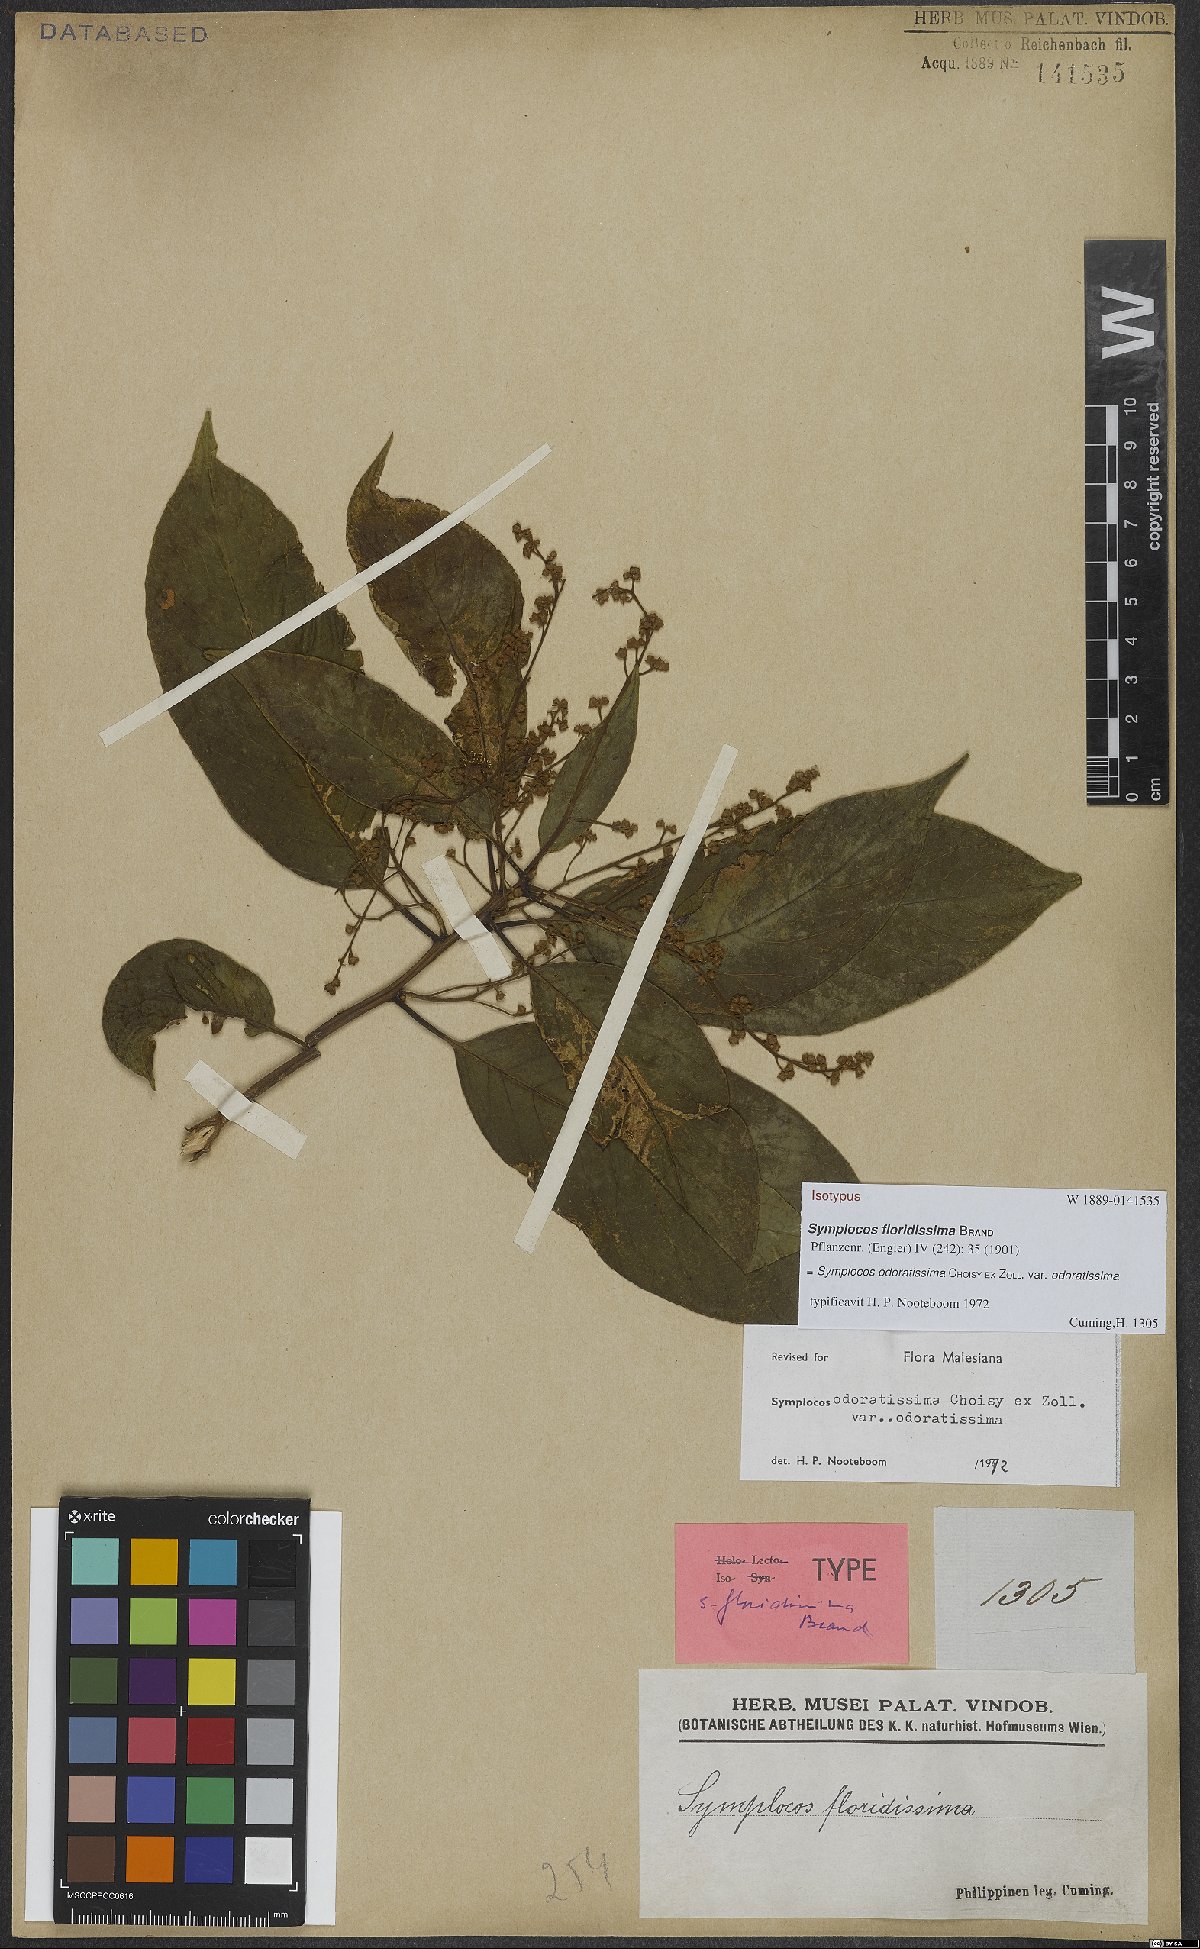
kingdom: Plantae
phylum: Tracheophyta
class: Magnoliopsida
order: Ericales
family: Symplocaceae
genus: Symplocos
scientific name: Symplocos odoratissima
